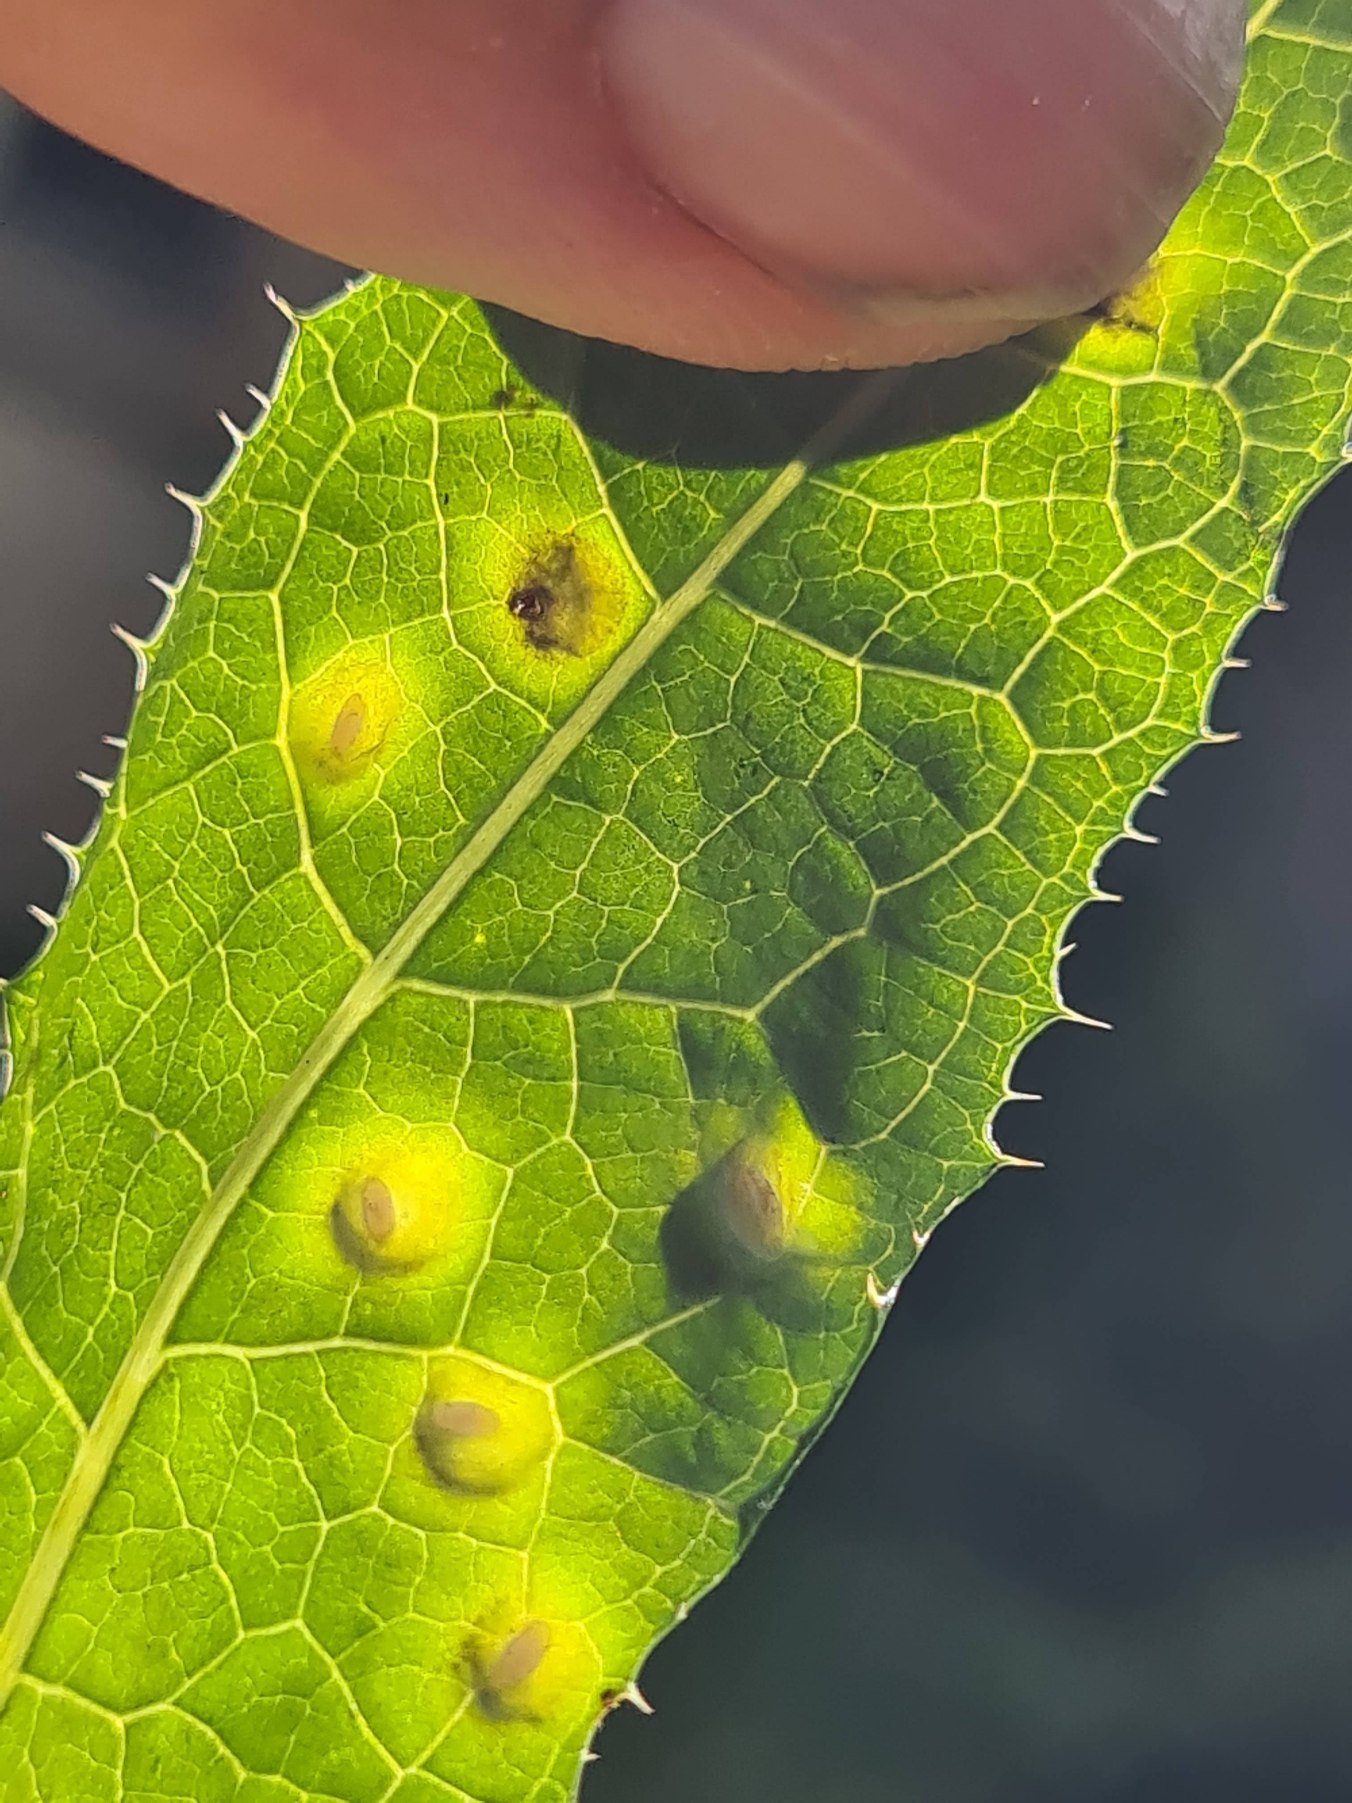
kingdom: Animalia
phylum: Arthropoda
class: Insecta
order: Diptera
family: Cecidomyiidae
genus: Cystiphora
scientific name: Cystiphora sonchi
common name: Svineblæregalmyg
